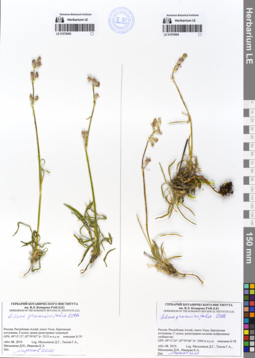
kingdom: Plantae
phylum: Tracheophyta
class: Magnoliopsida
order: Caryophyllales
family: Caryophyllaceae
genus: Silene
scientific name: Silene graminifolia
